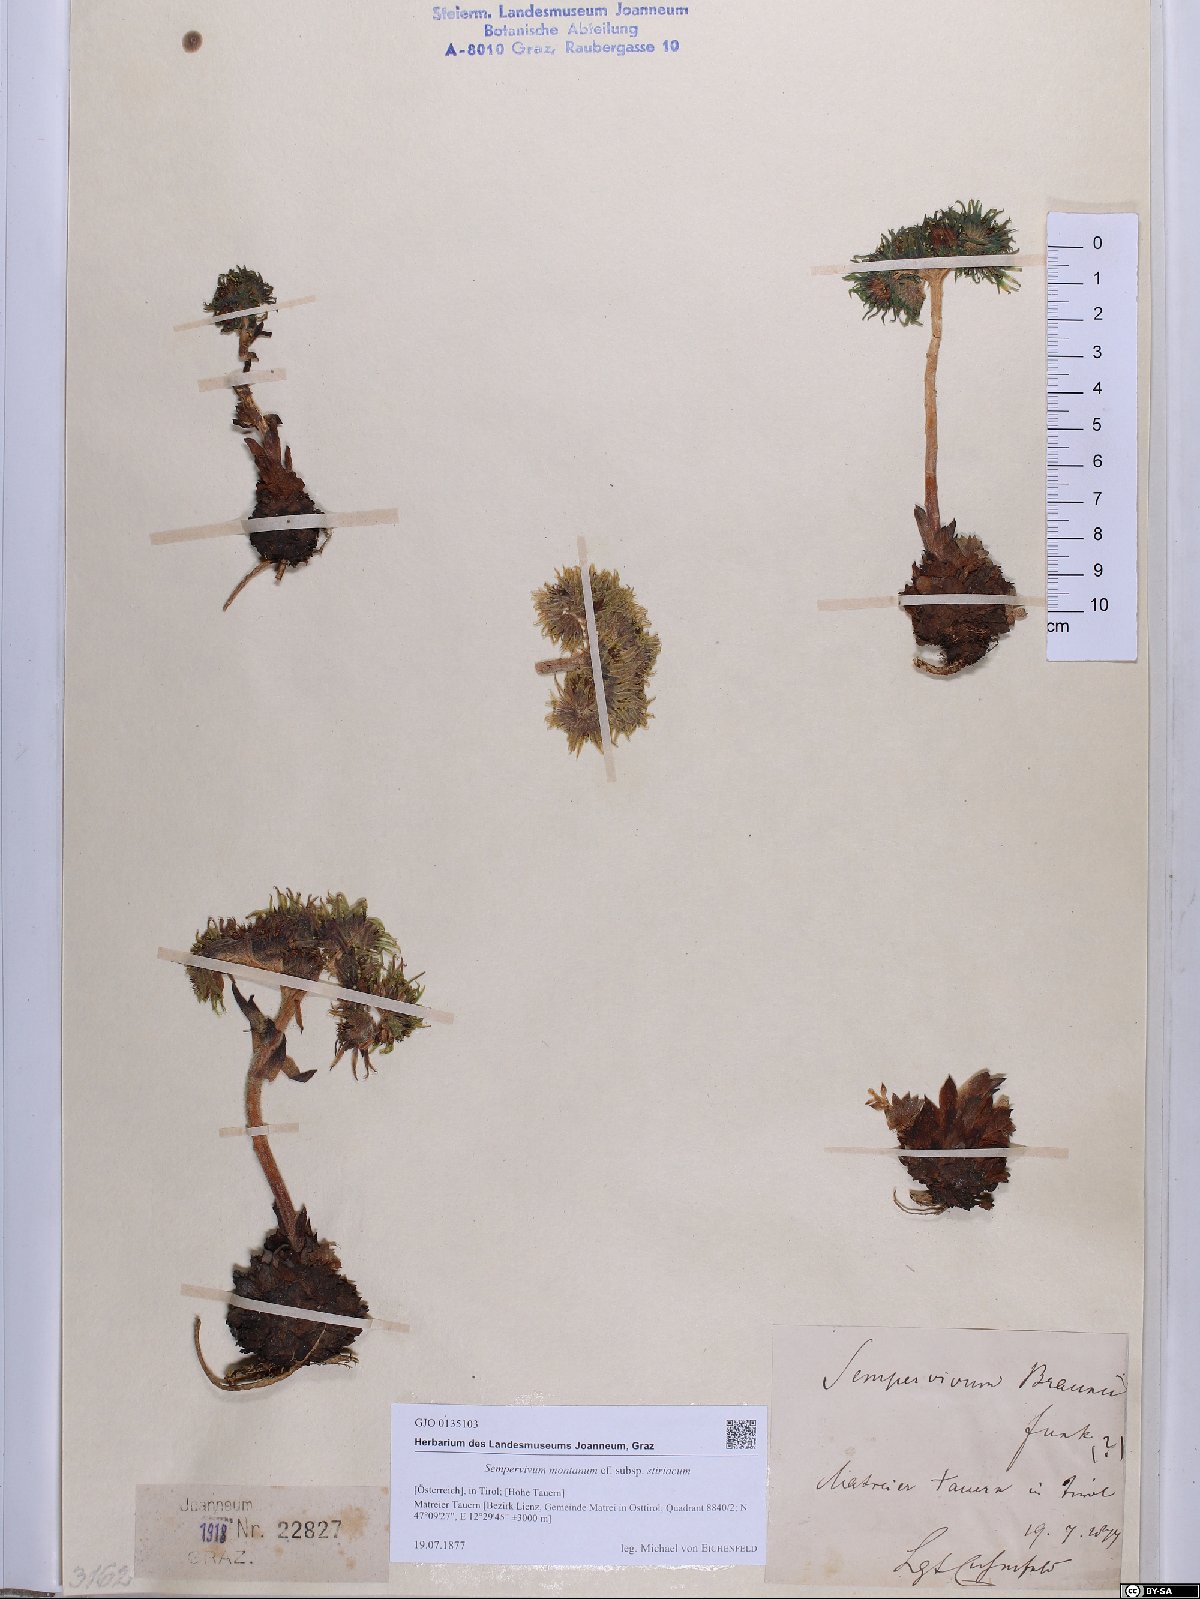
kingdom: Plantae
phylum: Tracheophyta
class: Magnoliopsida
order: Saxifragales
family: Crassulaceae
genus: Sempervivum
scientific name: Sempervivum montanum
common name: Mountain house-leek
